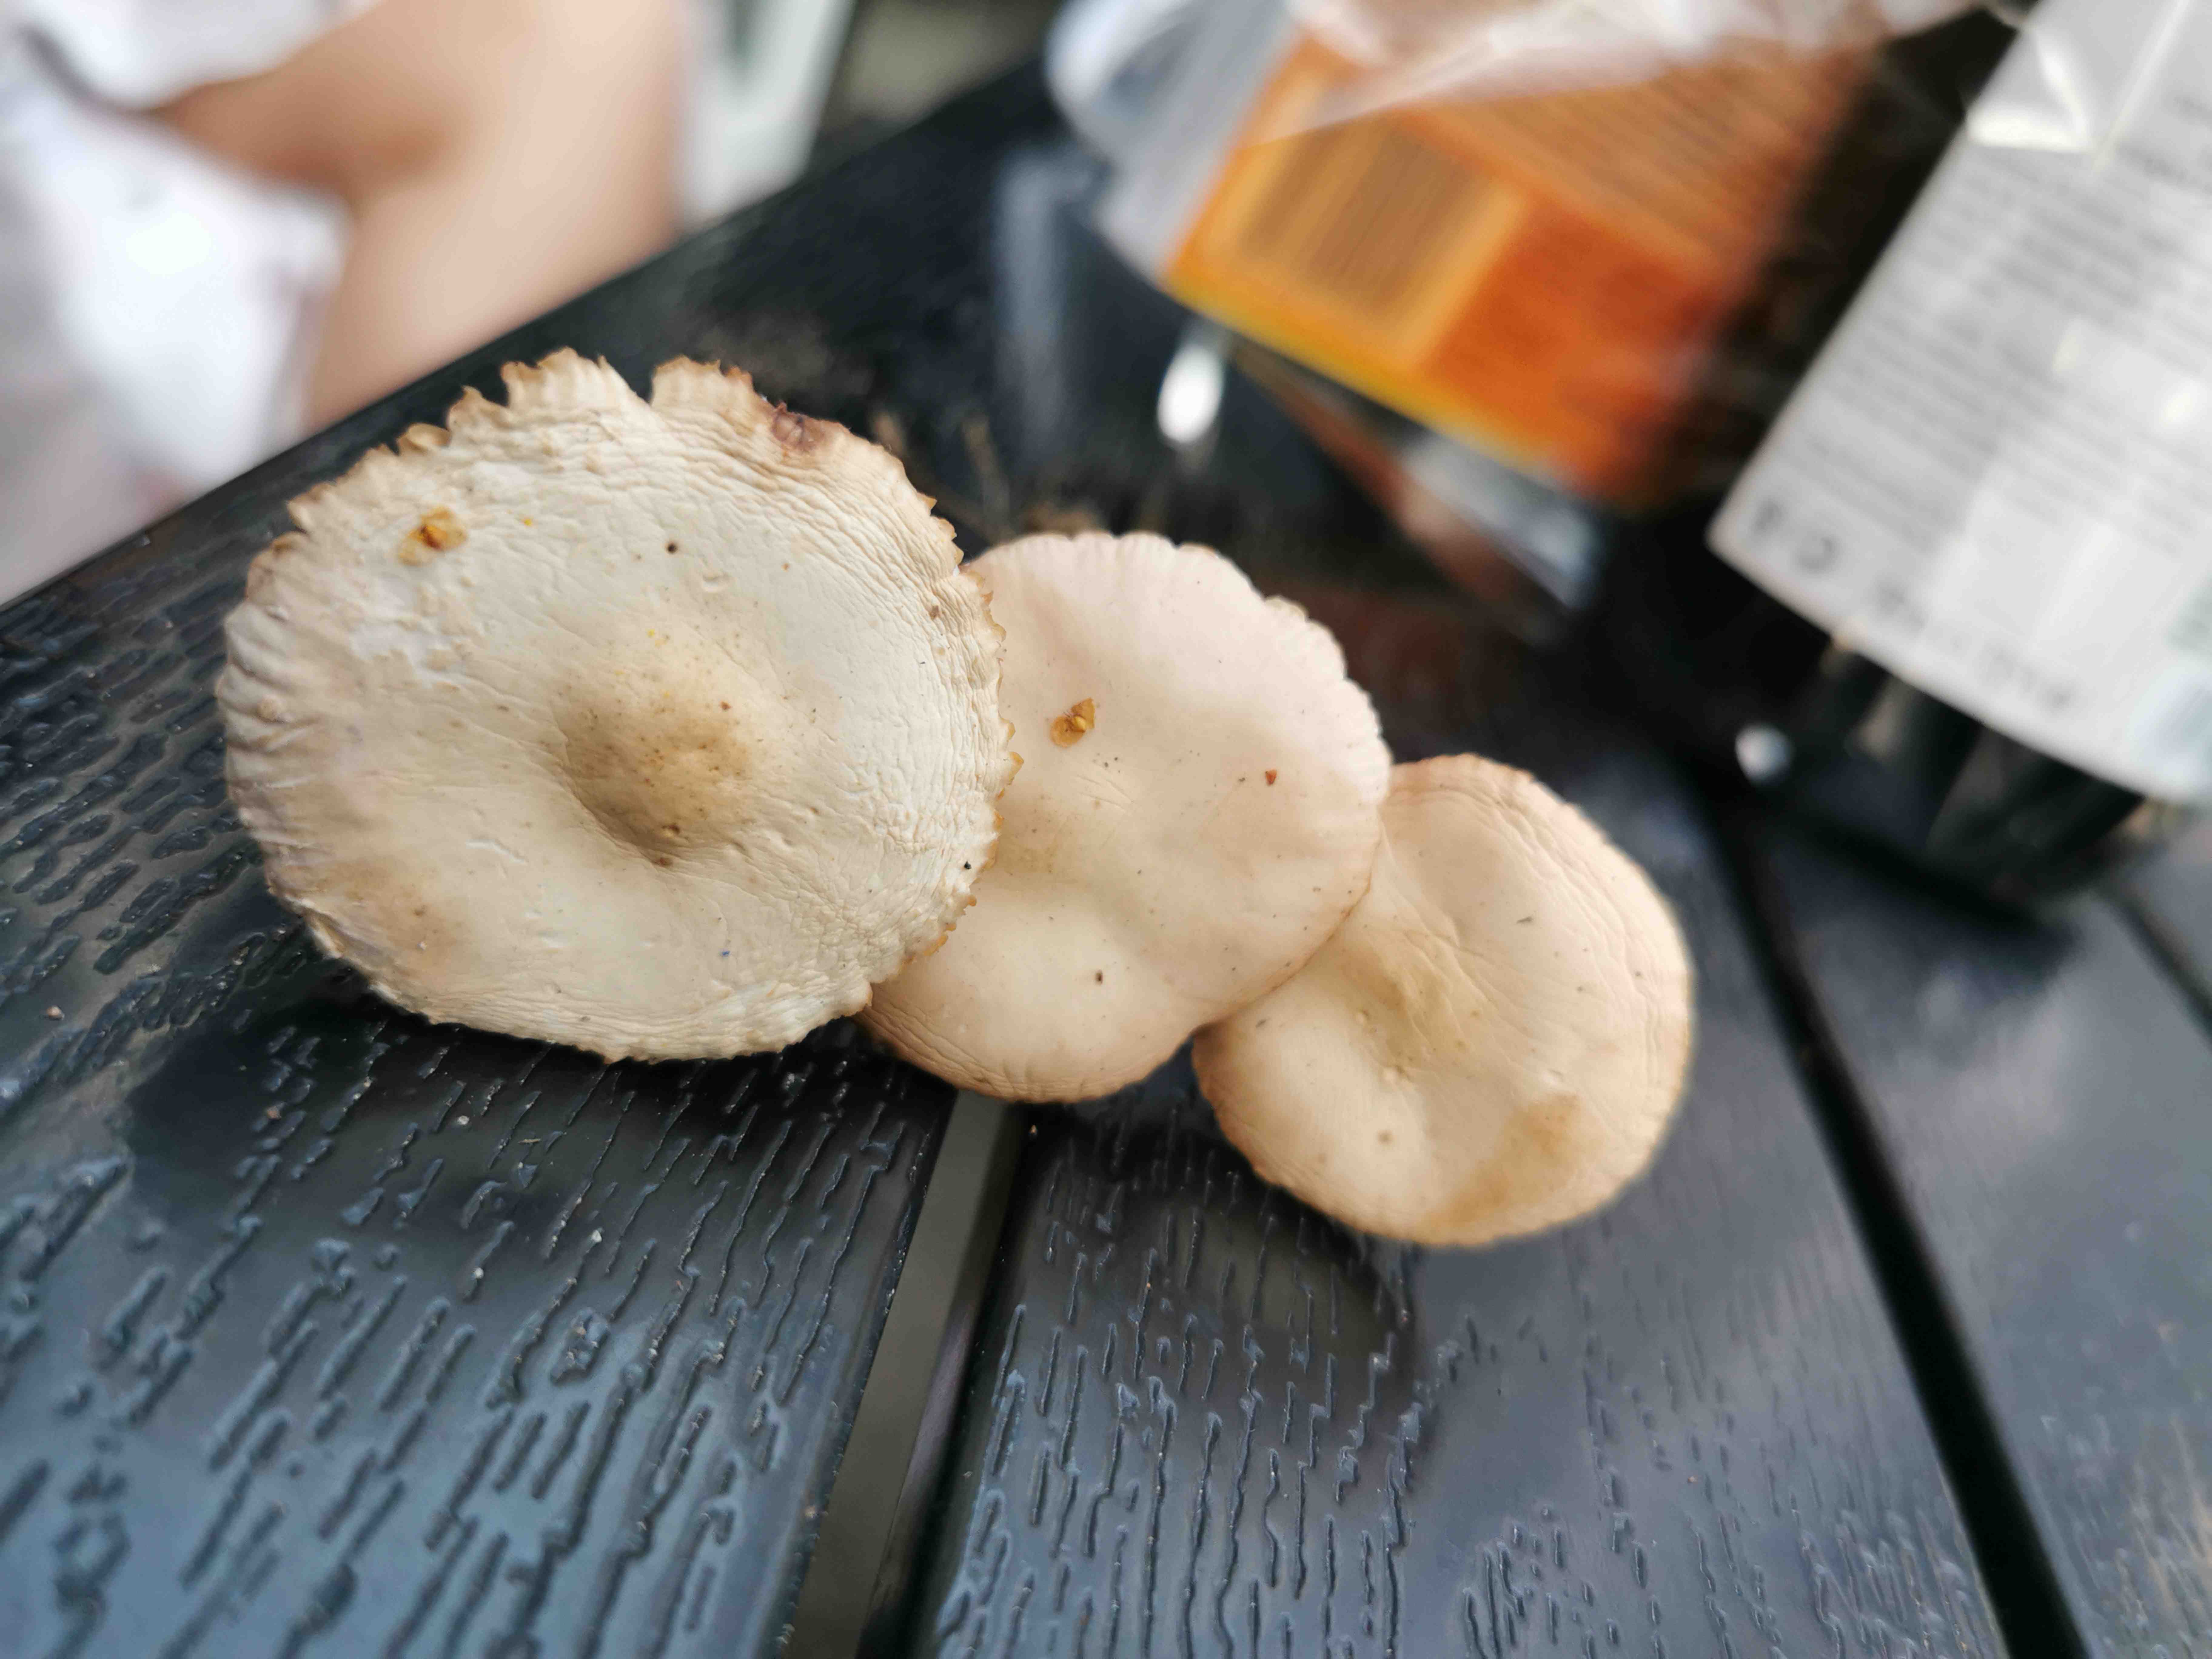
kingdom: Fungi
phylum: Basidiomycota
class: Agaricomycetes
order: Agaricales
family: Marasmiaceae
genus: Marasmius
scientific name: Marasmius oreades
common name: elledans-bruskhat
